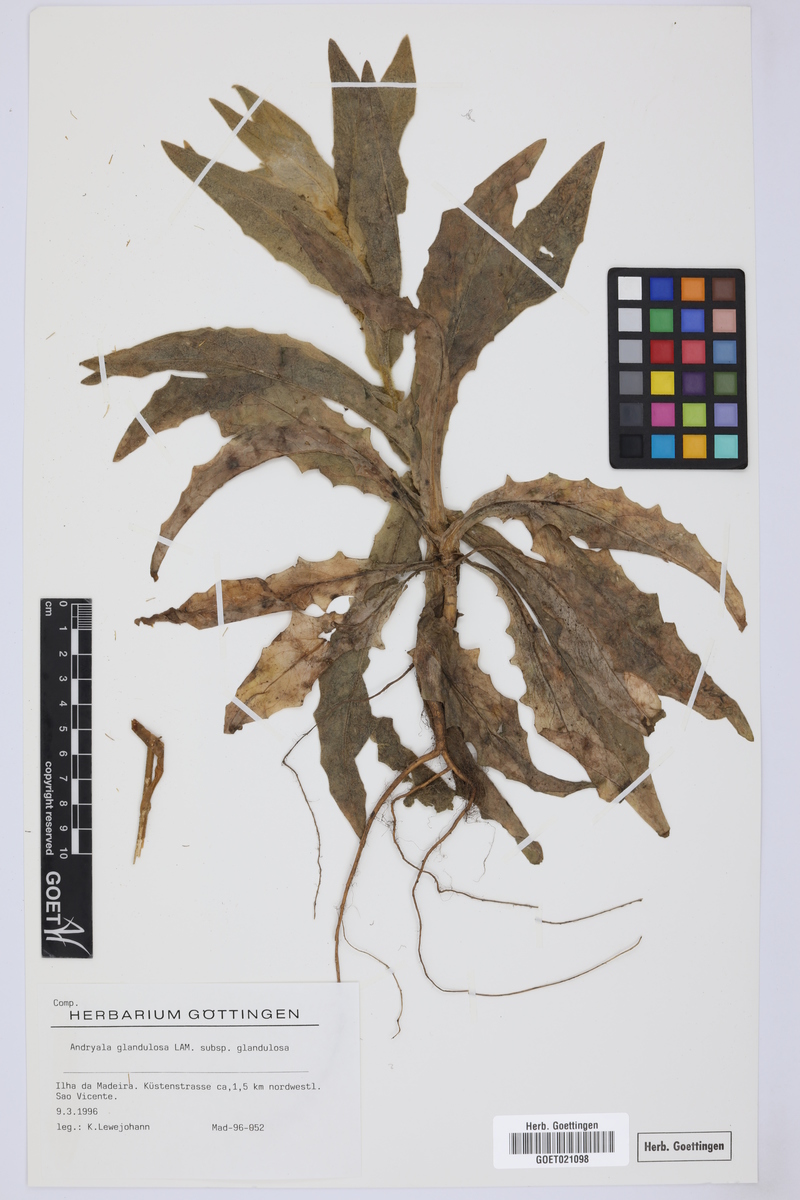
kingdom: Plantae
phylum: Tracheophyta
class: Magnoliopsida
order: Asterales
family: Asteraceae
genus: Andryala
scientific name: Andryala glandulosa
